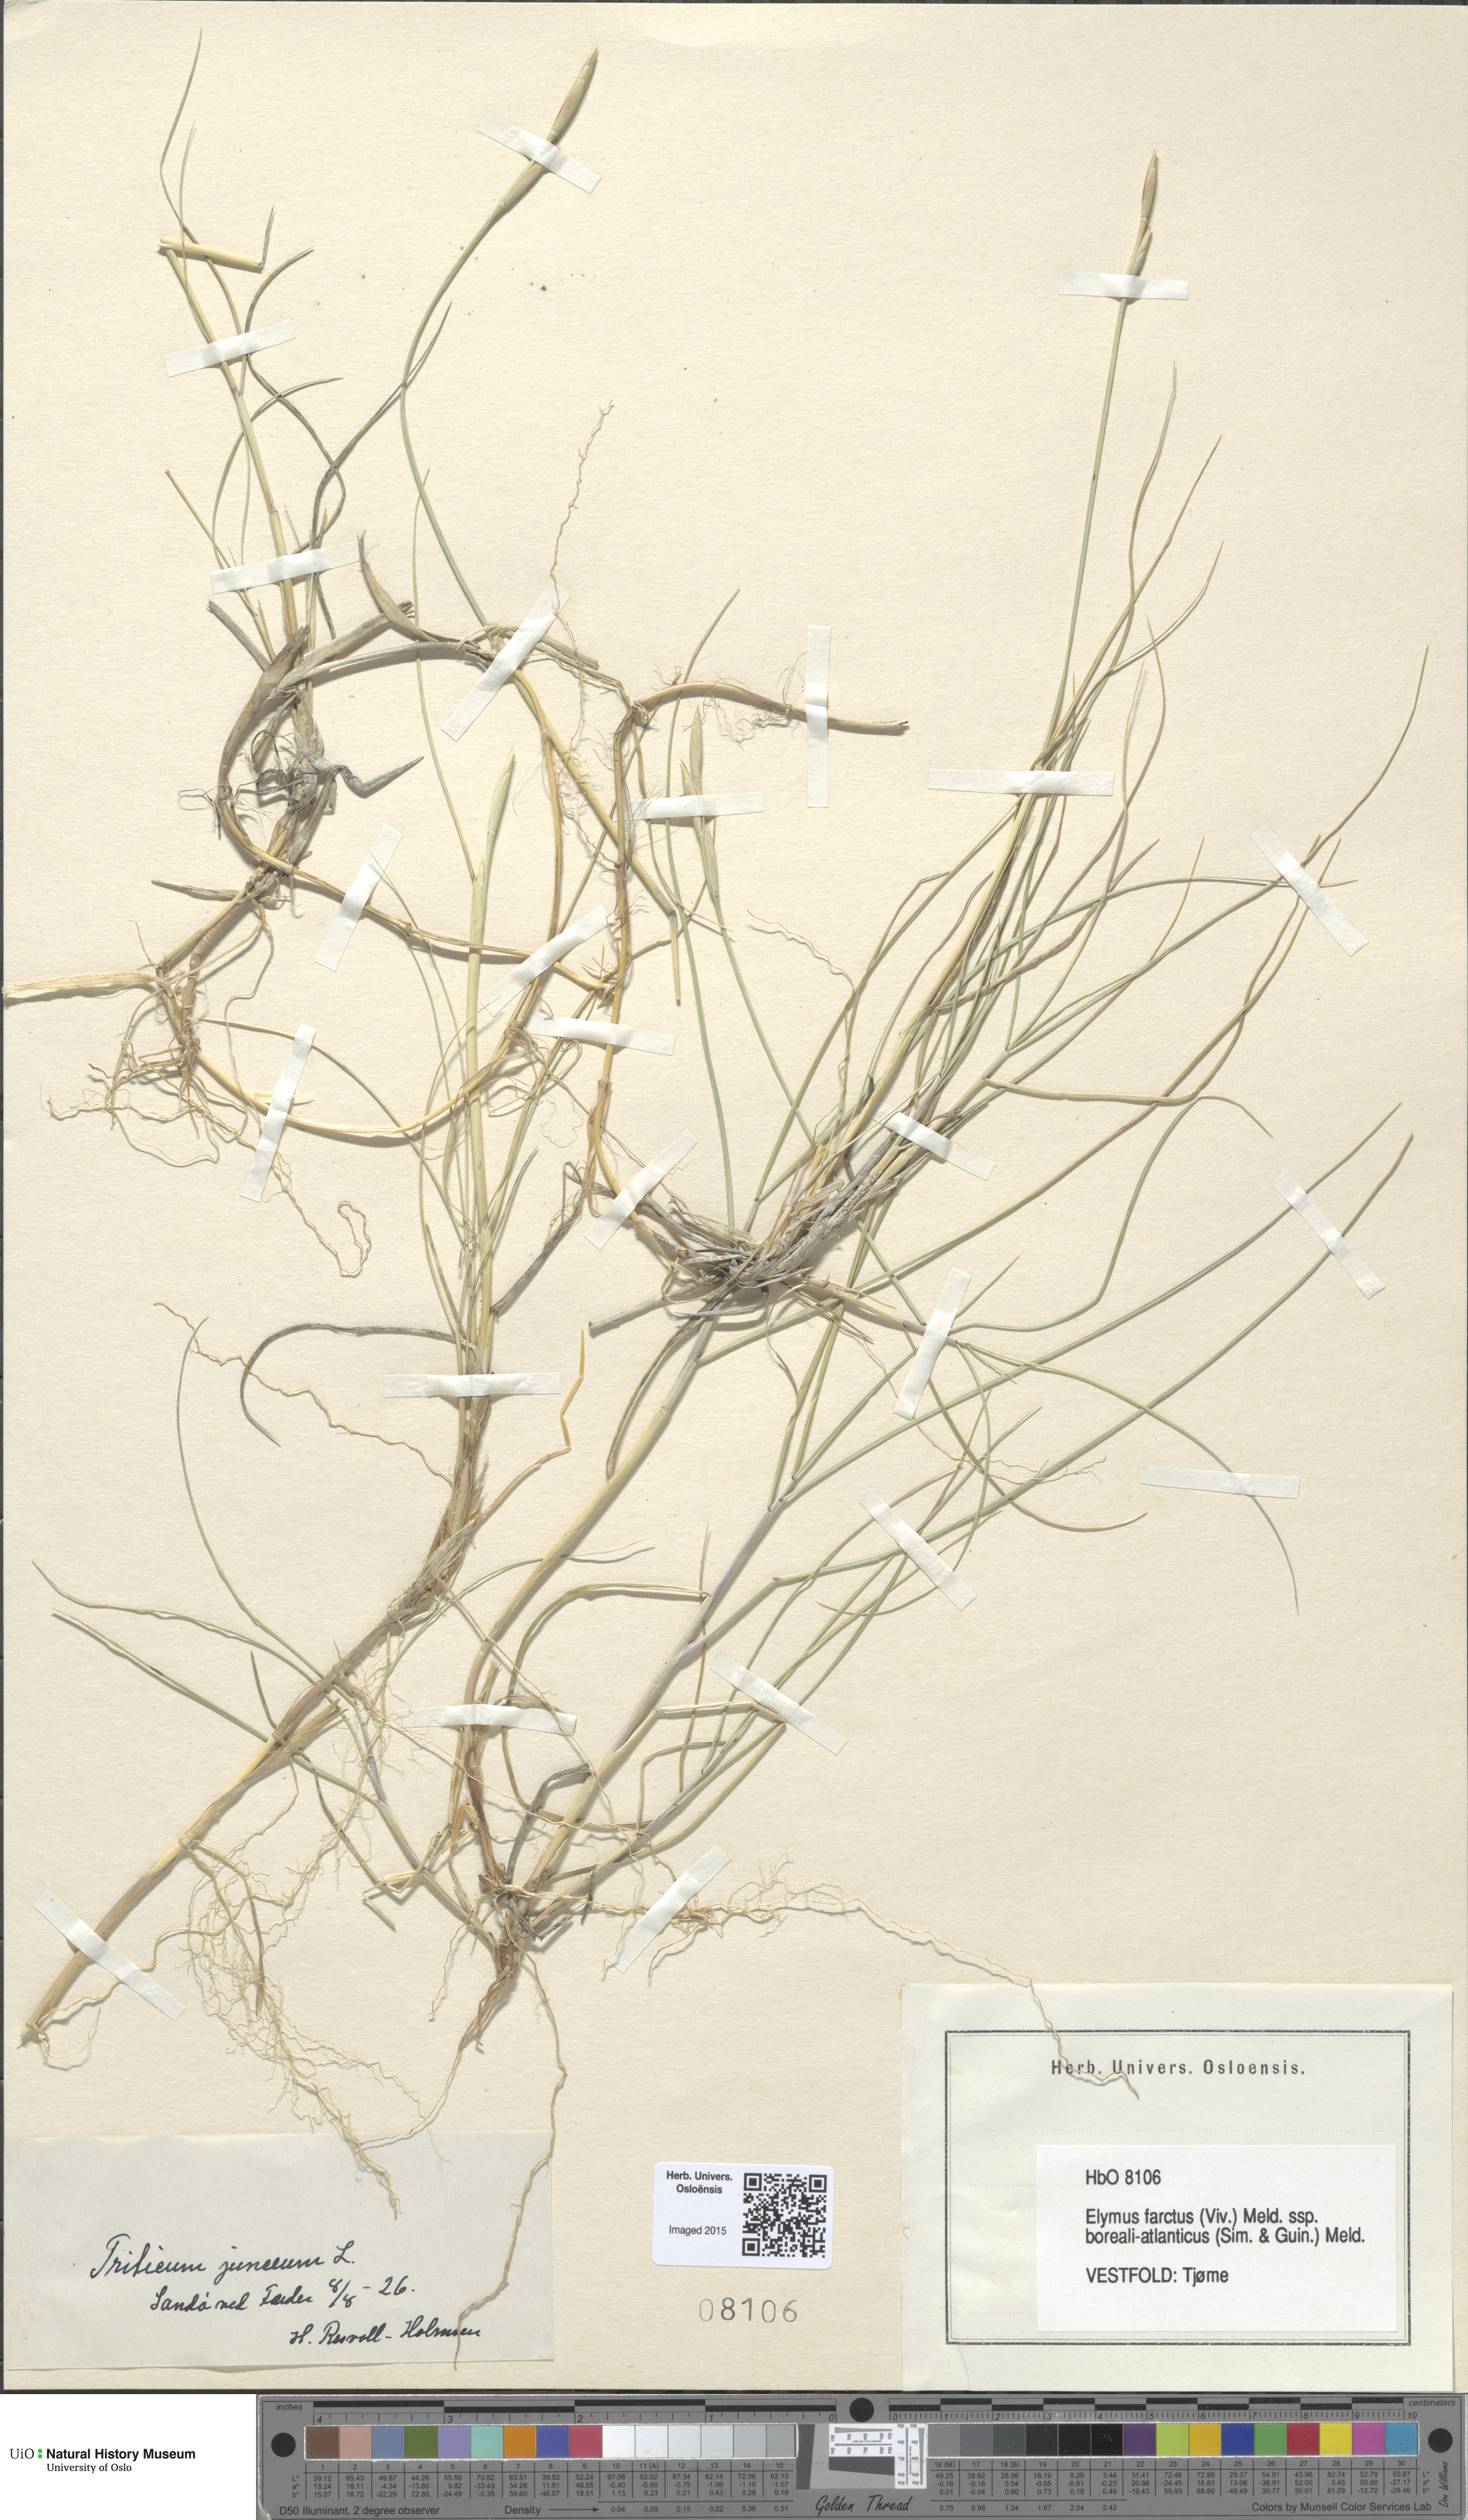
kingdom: Plantae
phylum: Tracheophyta
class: Liliopsida
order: Poales
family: Poaceae
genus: Thinopyrum
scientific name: Thinopyrum junceiforme
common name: Sea couch
